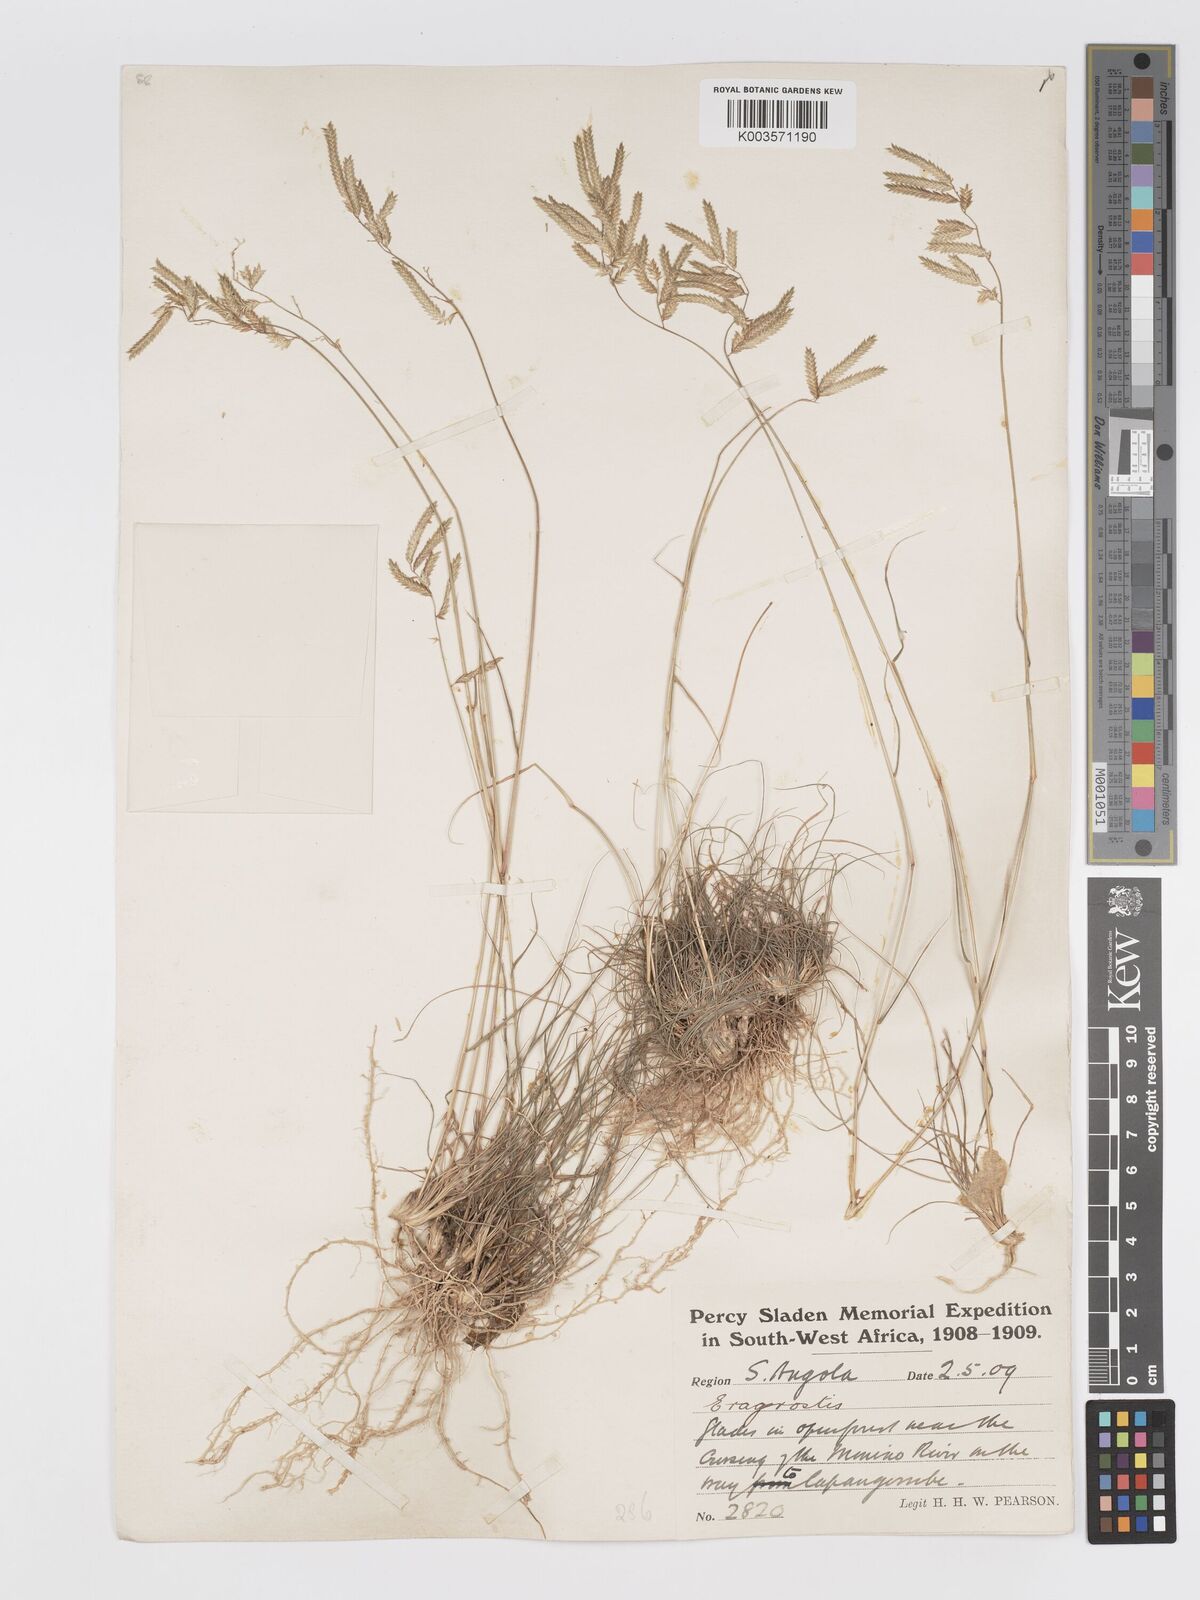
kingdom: Plantae
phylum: Tracheophyta
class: Liliopsida
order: Poales
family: Poaceae
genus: Eragrostis
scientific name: Eragrostis nindensis
